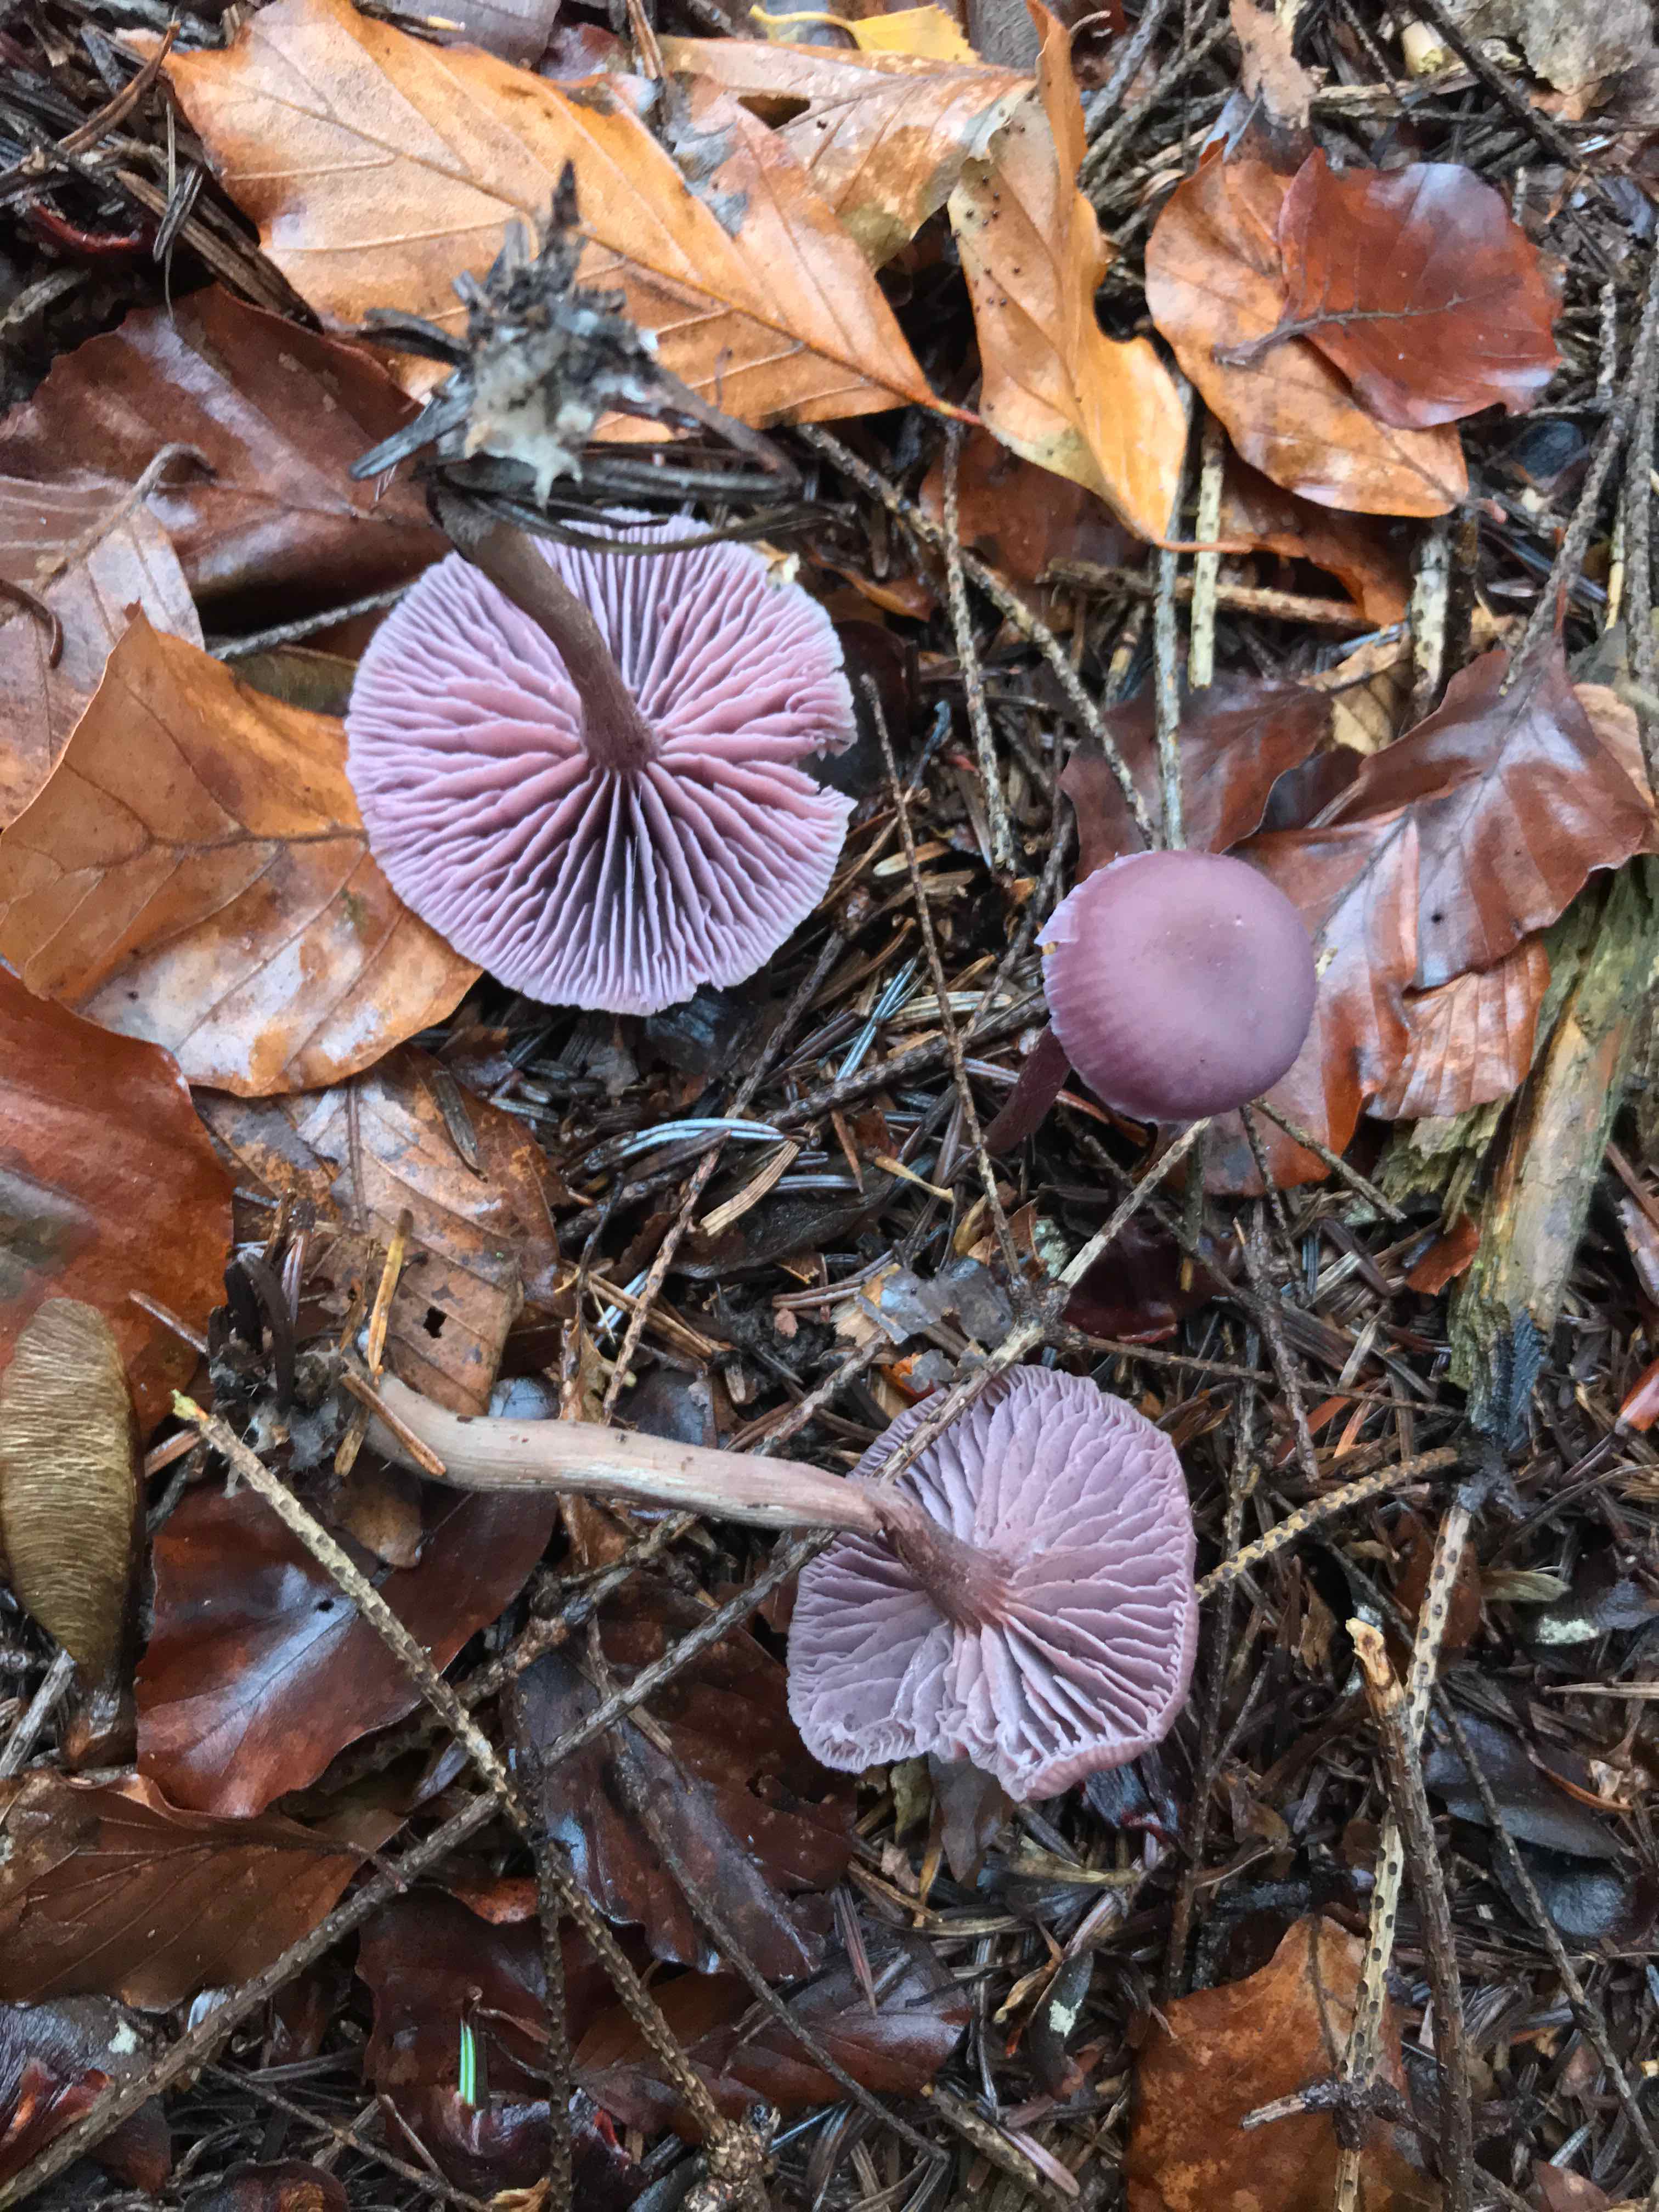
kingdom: Fungi
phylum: Basidiomycota
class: Agaricomycetes
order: Agaricales
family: Hydnangiaceae
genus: Laccaria
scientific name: Laccaria amethystina
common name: violet ametysthat
